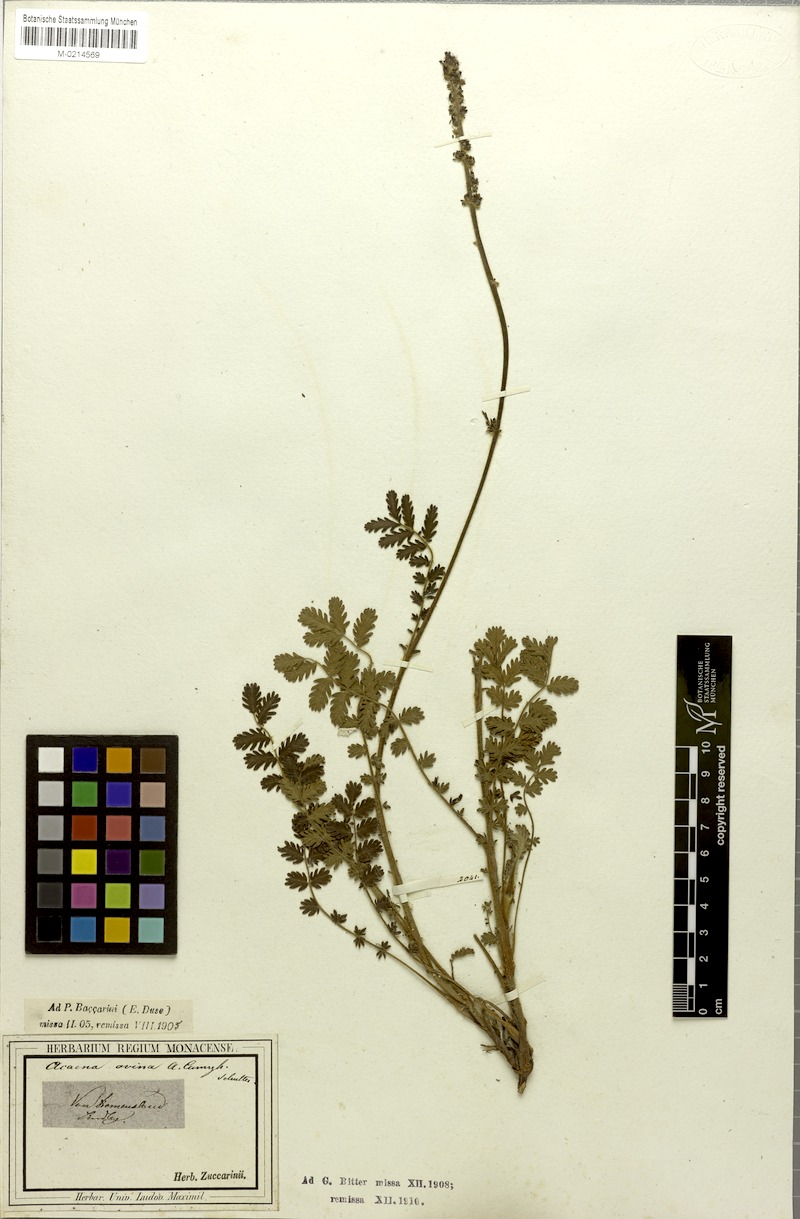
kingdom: Plantae
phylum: Tracheophyta
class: Magnoliopsida
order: Rosales
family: Rosaceae
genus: Acaena
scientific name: Acaena ovina
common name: Hairy sheepbur
